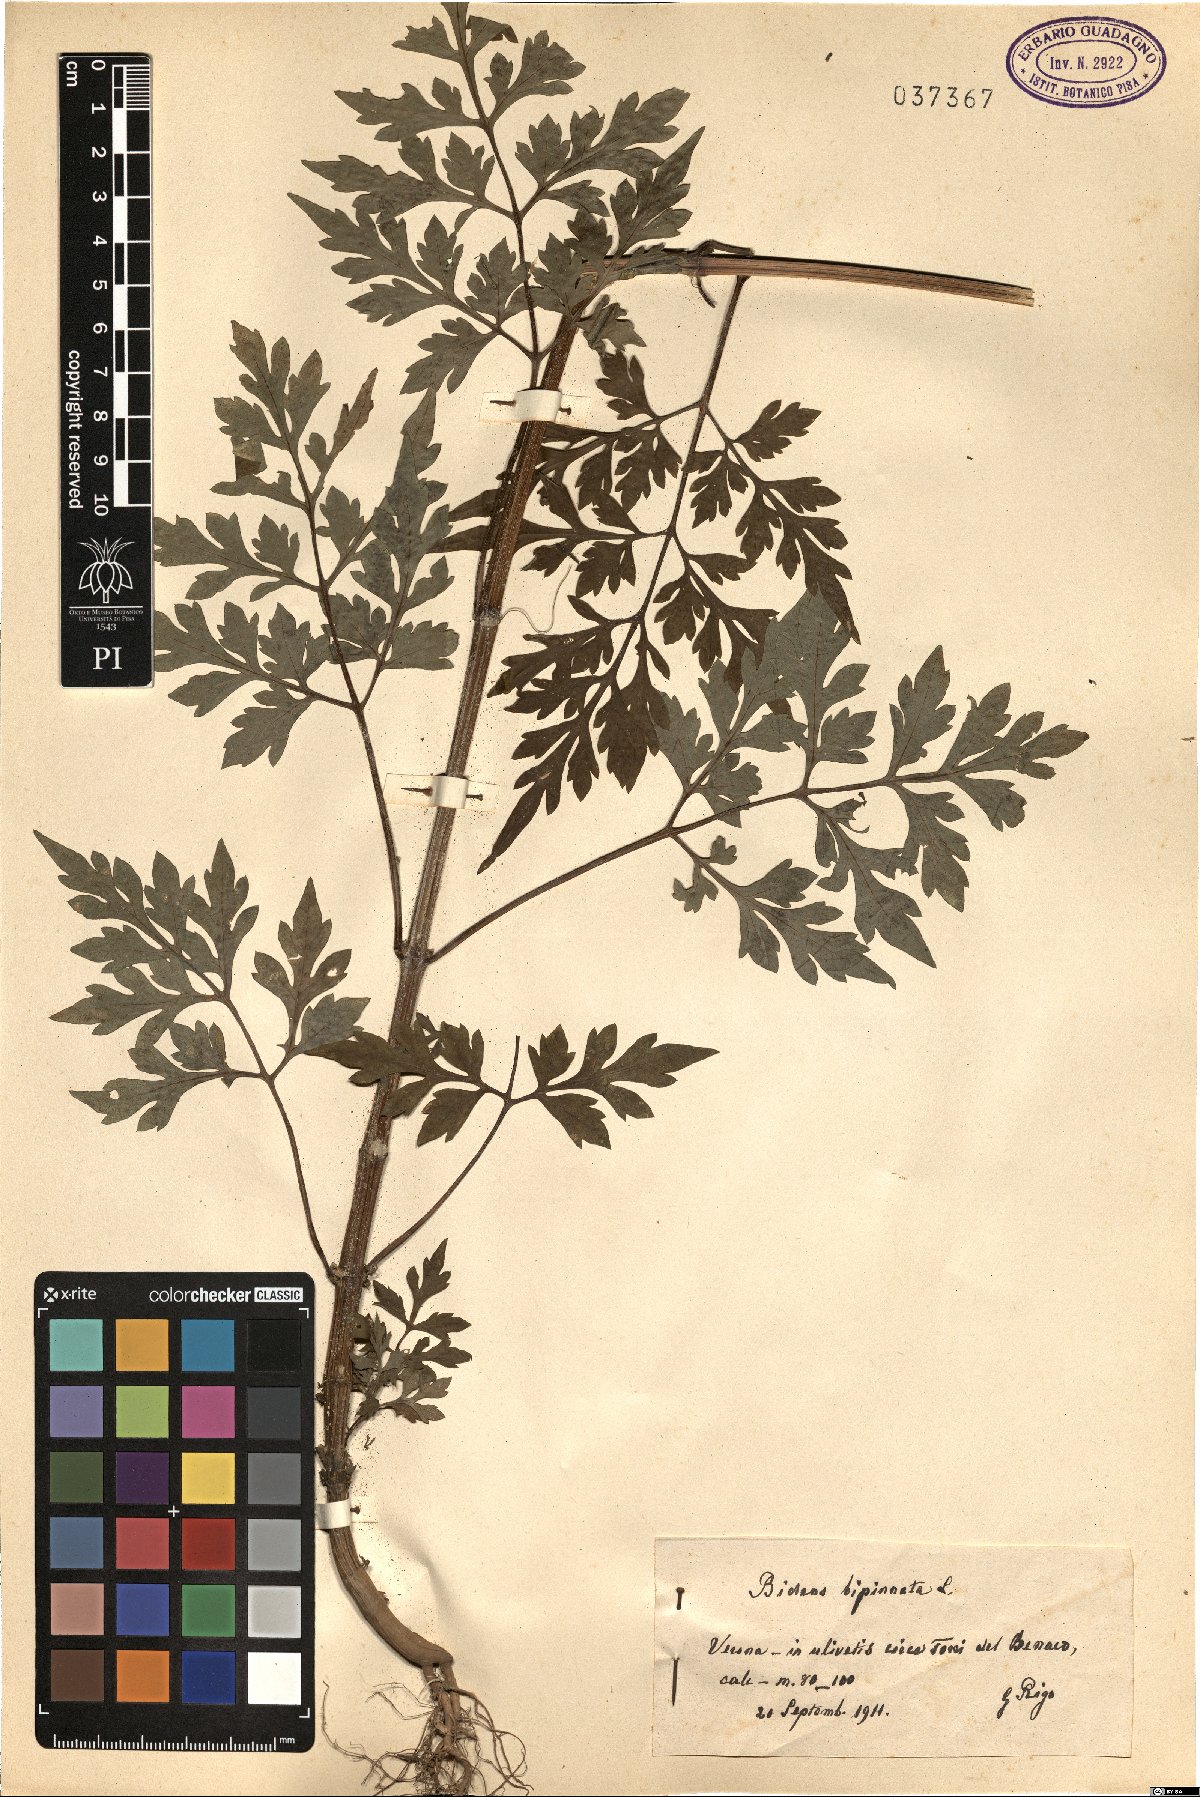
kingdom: Plantae
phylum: Tracheophyta
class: Magnoliopsida
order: Asterales
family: Asteraceae
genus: Bidens
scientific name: Bidens bipinnata
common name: Spanish-needles
